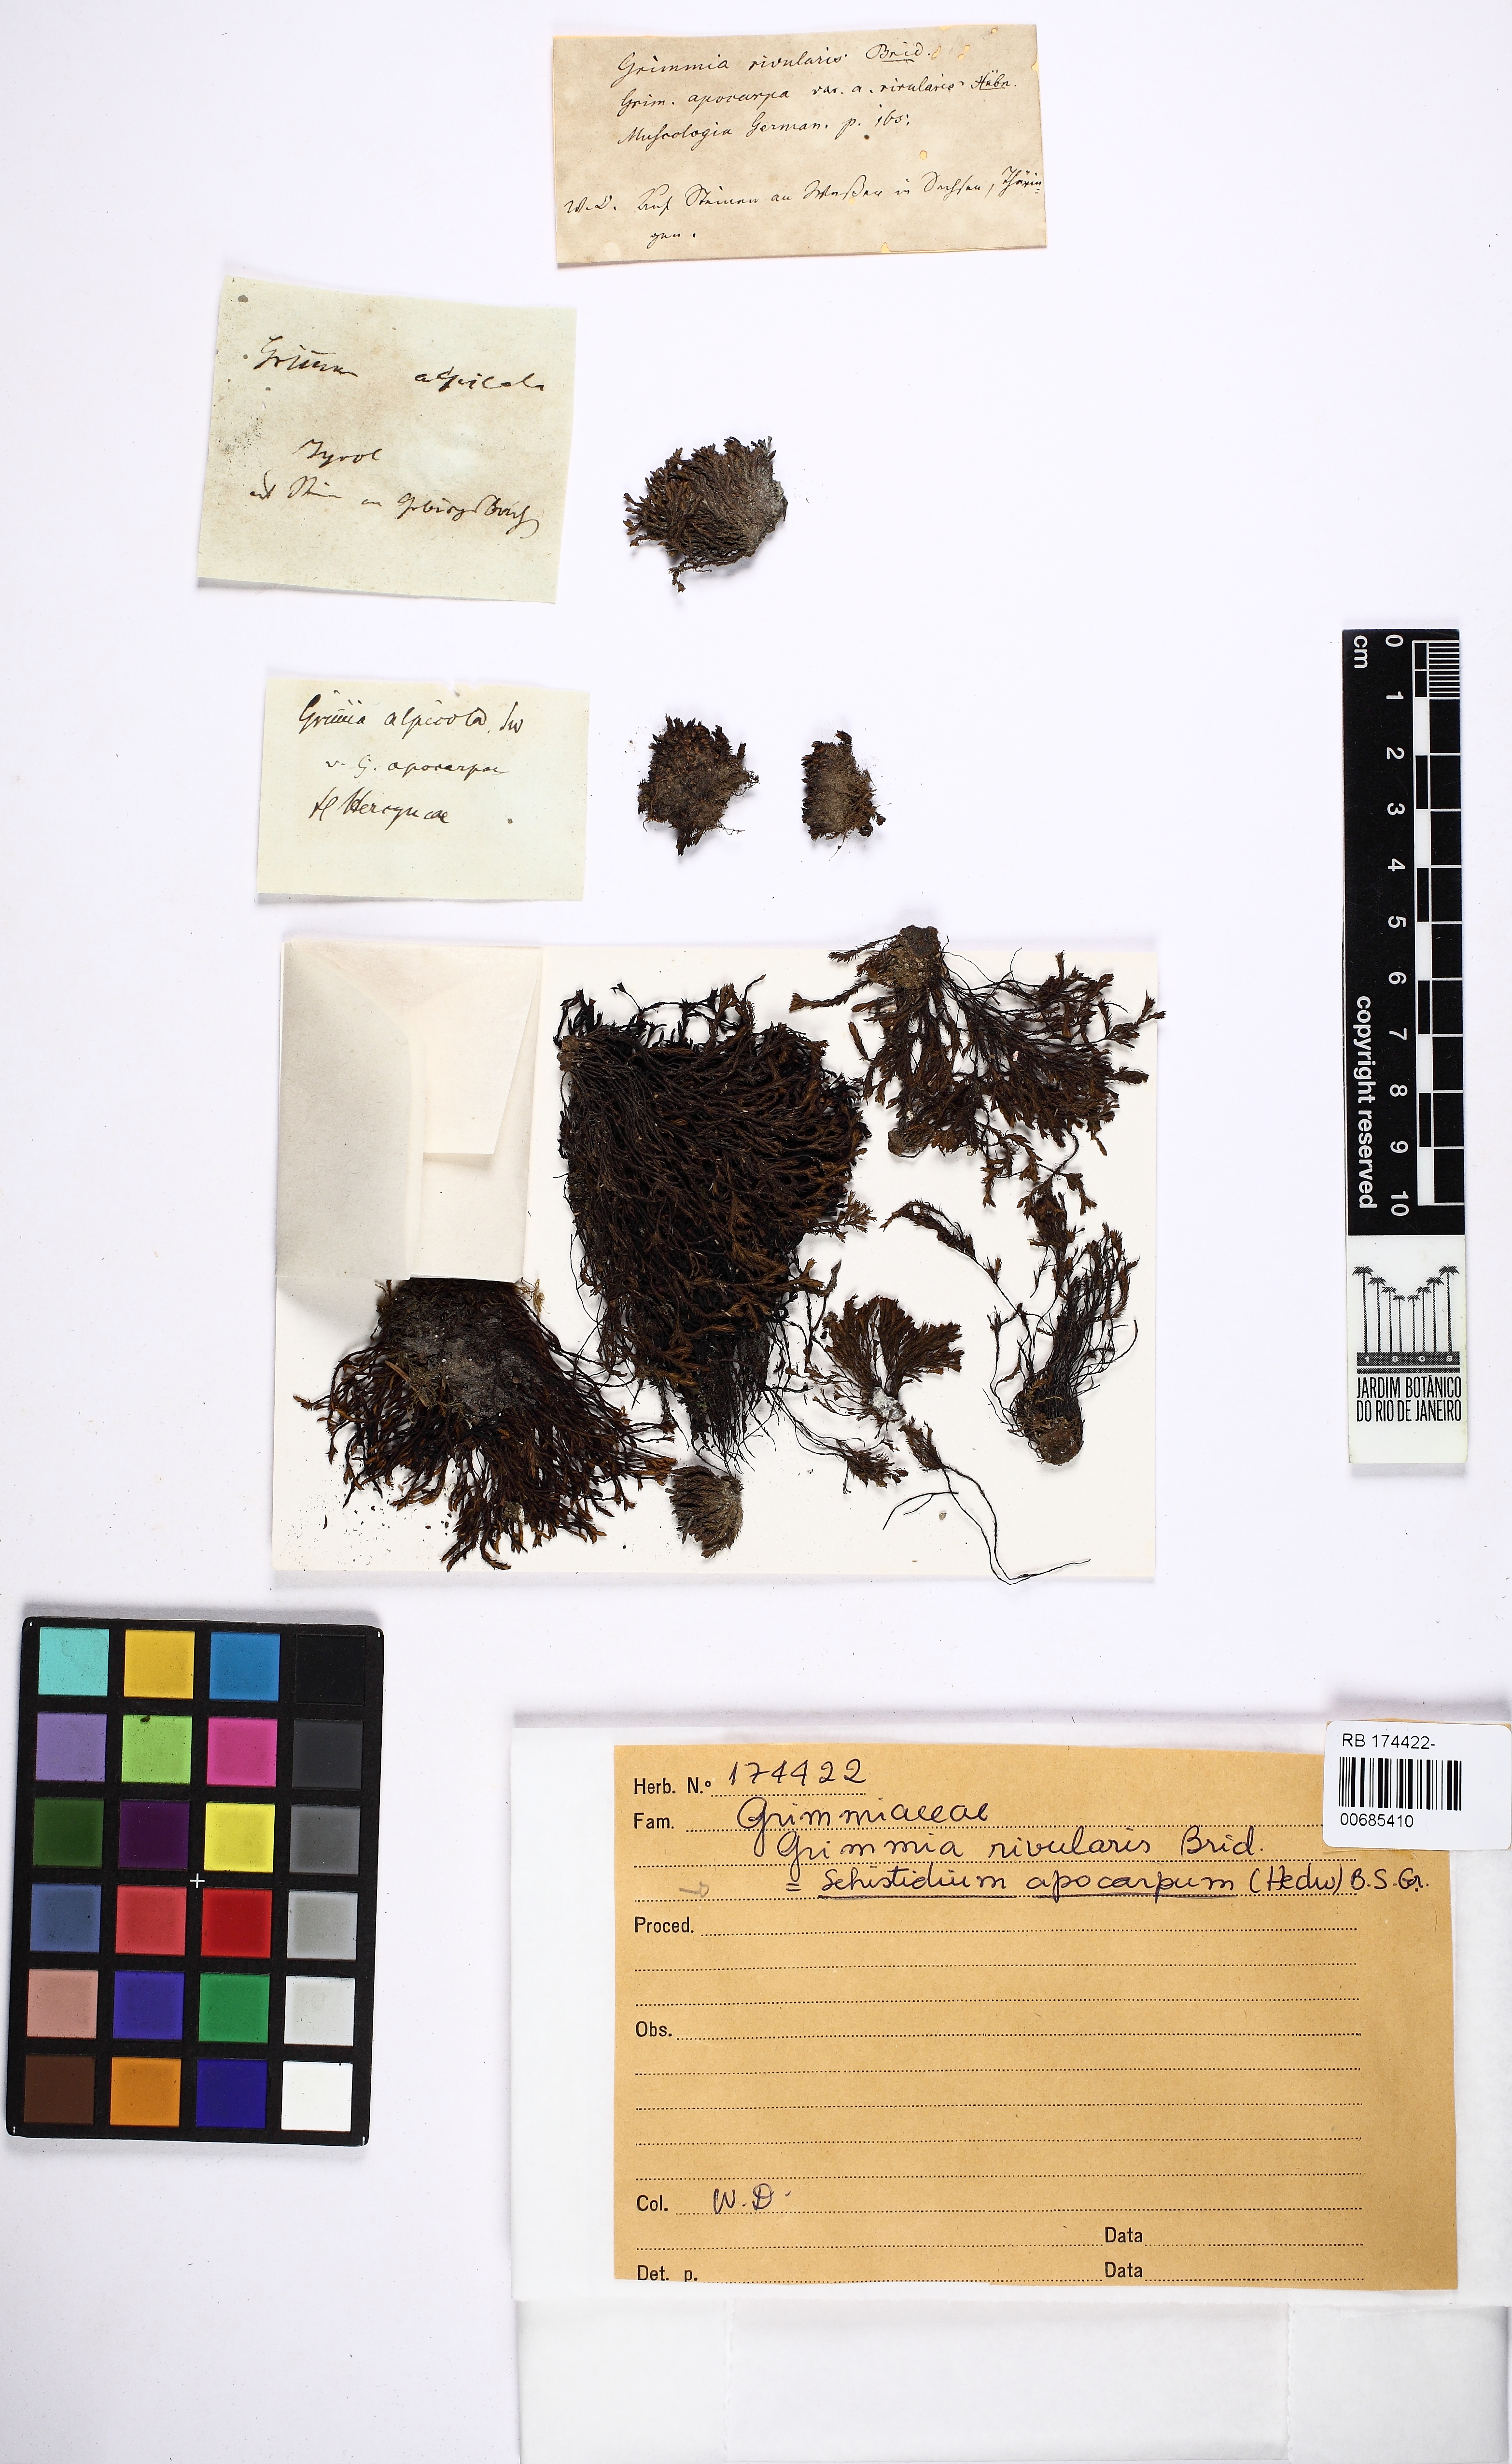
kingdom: Plantae
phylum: Bryophyta
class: Bryopsida
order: Grimmiales
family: Grimmiaceae
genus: Schistidium
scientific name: Schistidium apocarpum
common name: Radiate bloom moss
